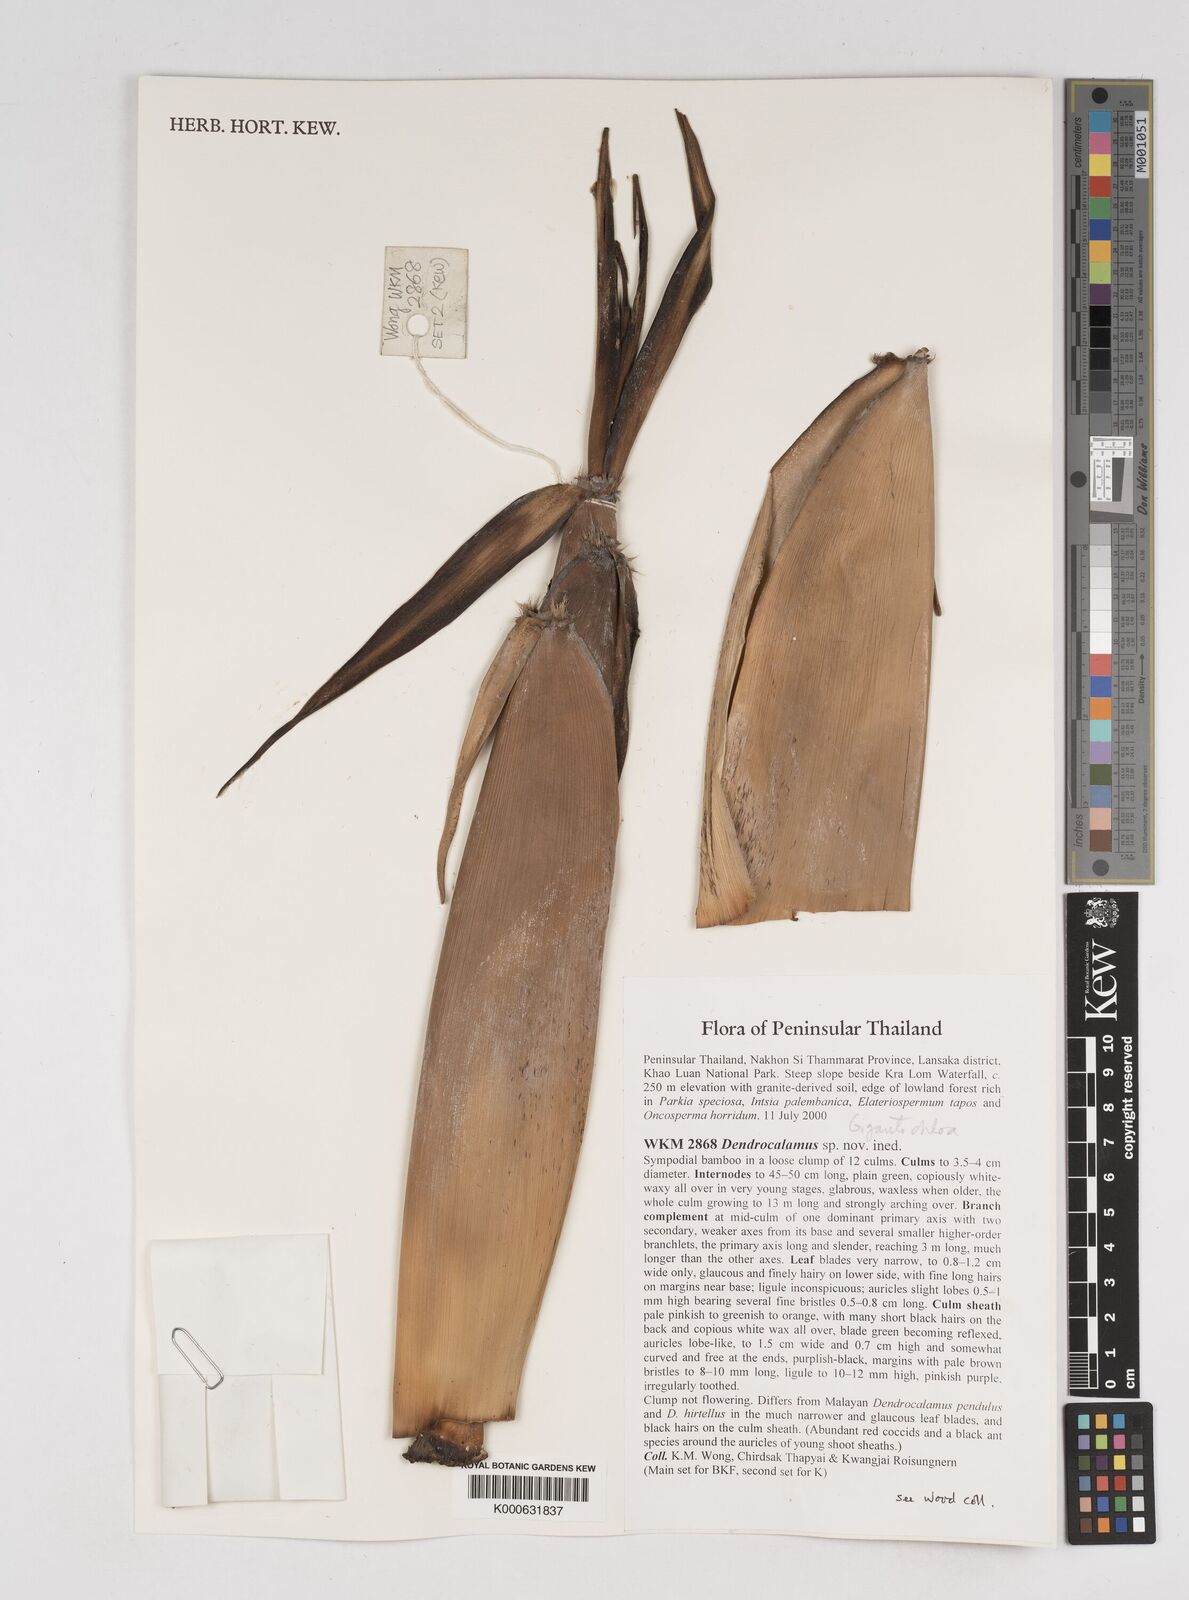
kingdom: Plantae
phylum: Tracheophyta
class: Liliopsida
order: Poales
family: Poaceae
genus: Gigantochloa
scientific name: Gigantochloa
